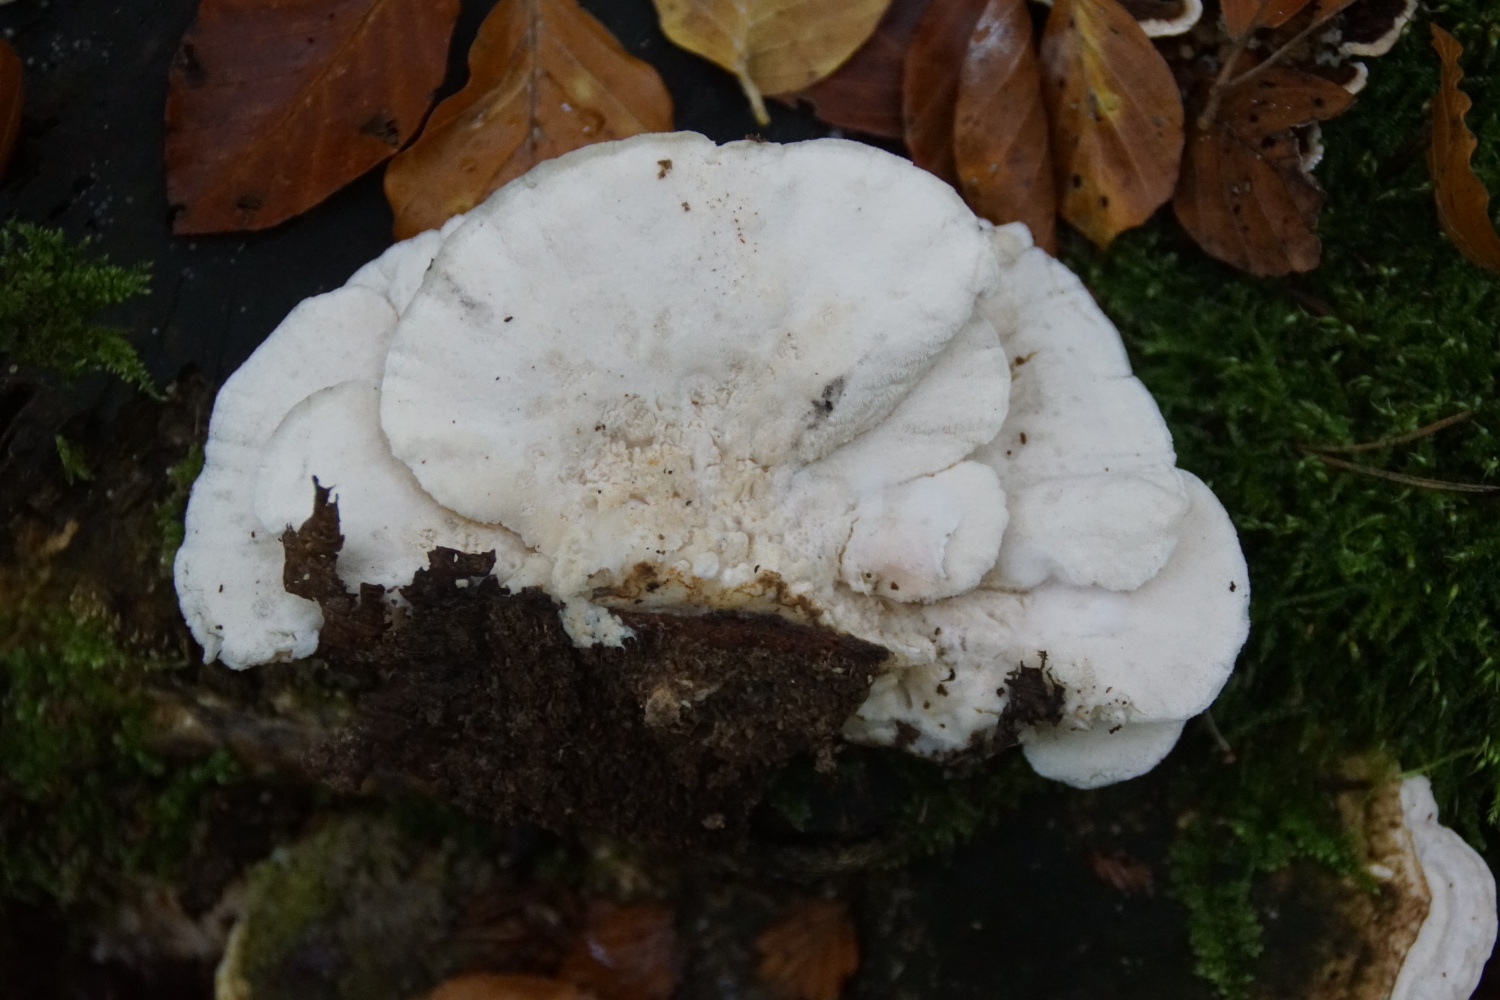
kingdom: Fungi
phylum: Basidiomycota
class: Agaricomycetes
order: Polyporales
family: Incrustoporiaceae
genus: Tyromyces
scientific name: Tyromyces chioneus
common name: stor blødporesvamp
